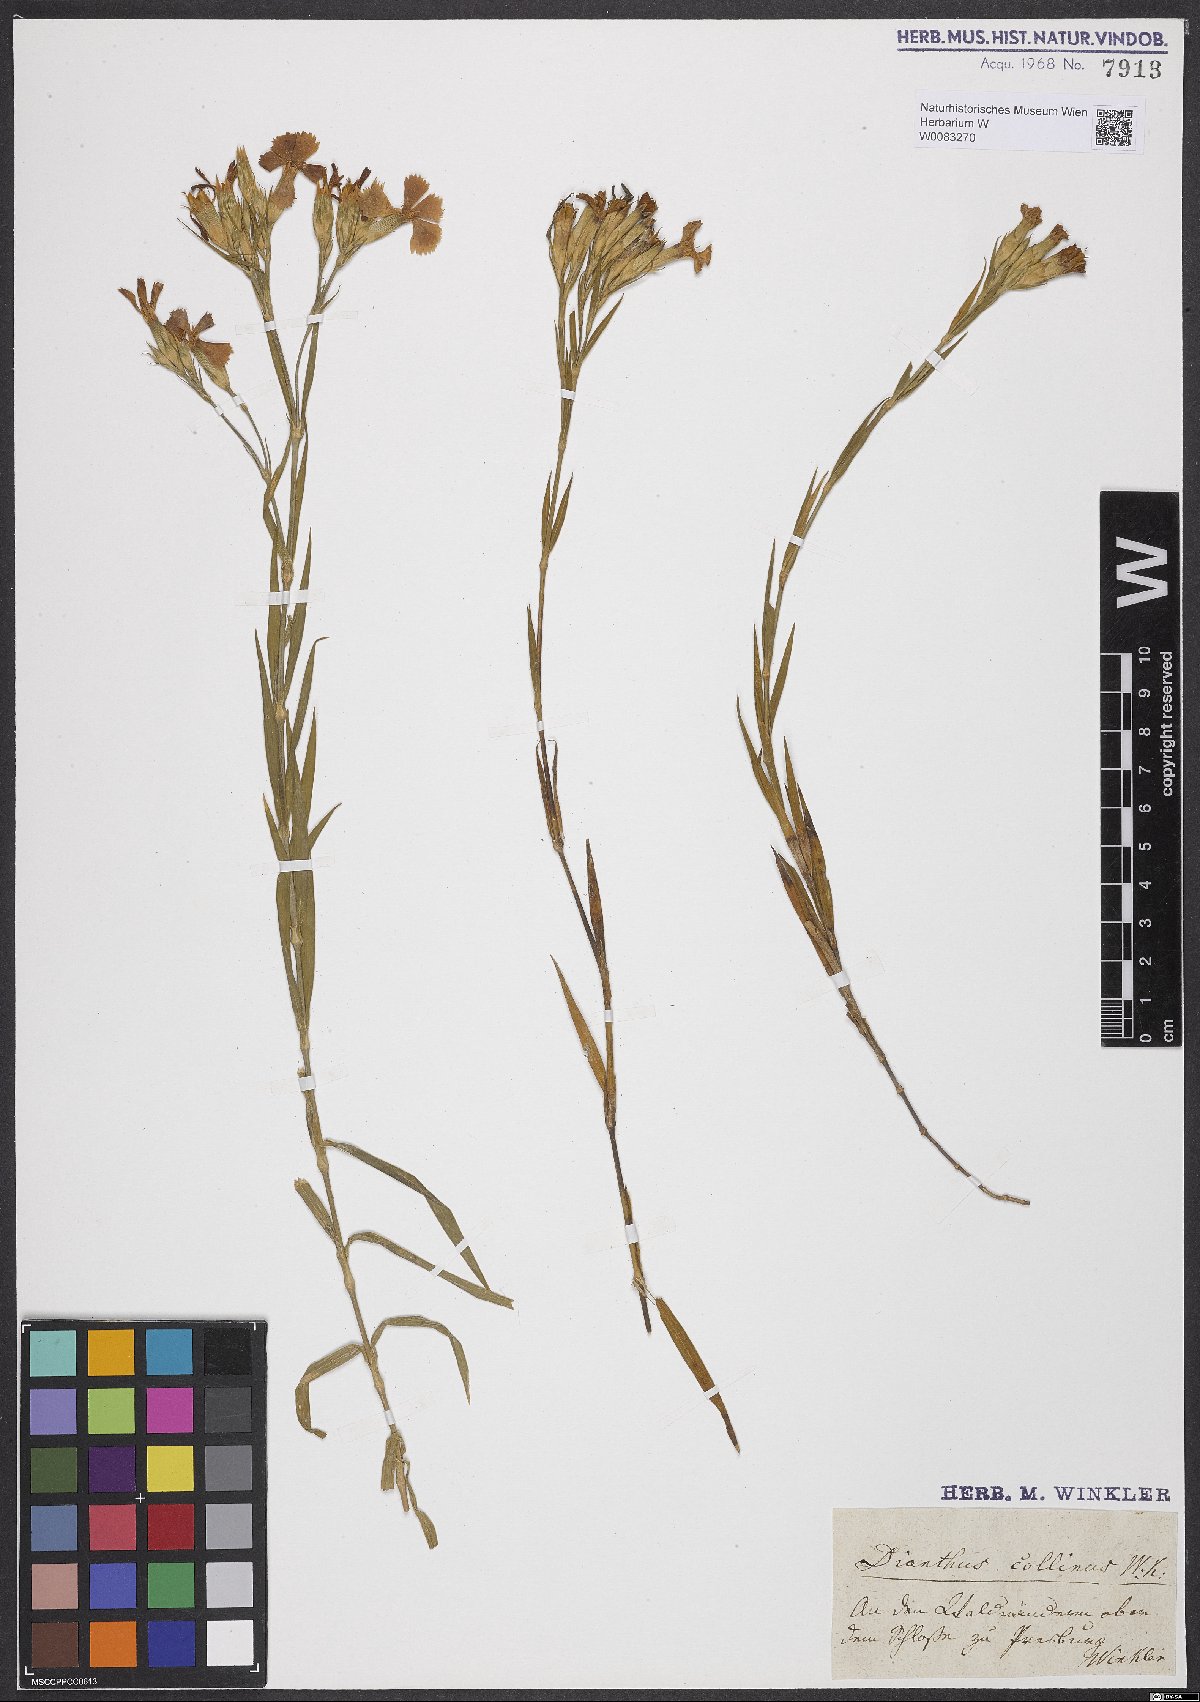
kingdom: Plantae
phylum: Tracheophyta
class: Magnoliopsida
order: Caryophyllales
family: Caryophyllaceae
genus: Dianthus
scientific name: Dianthus collinus
